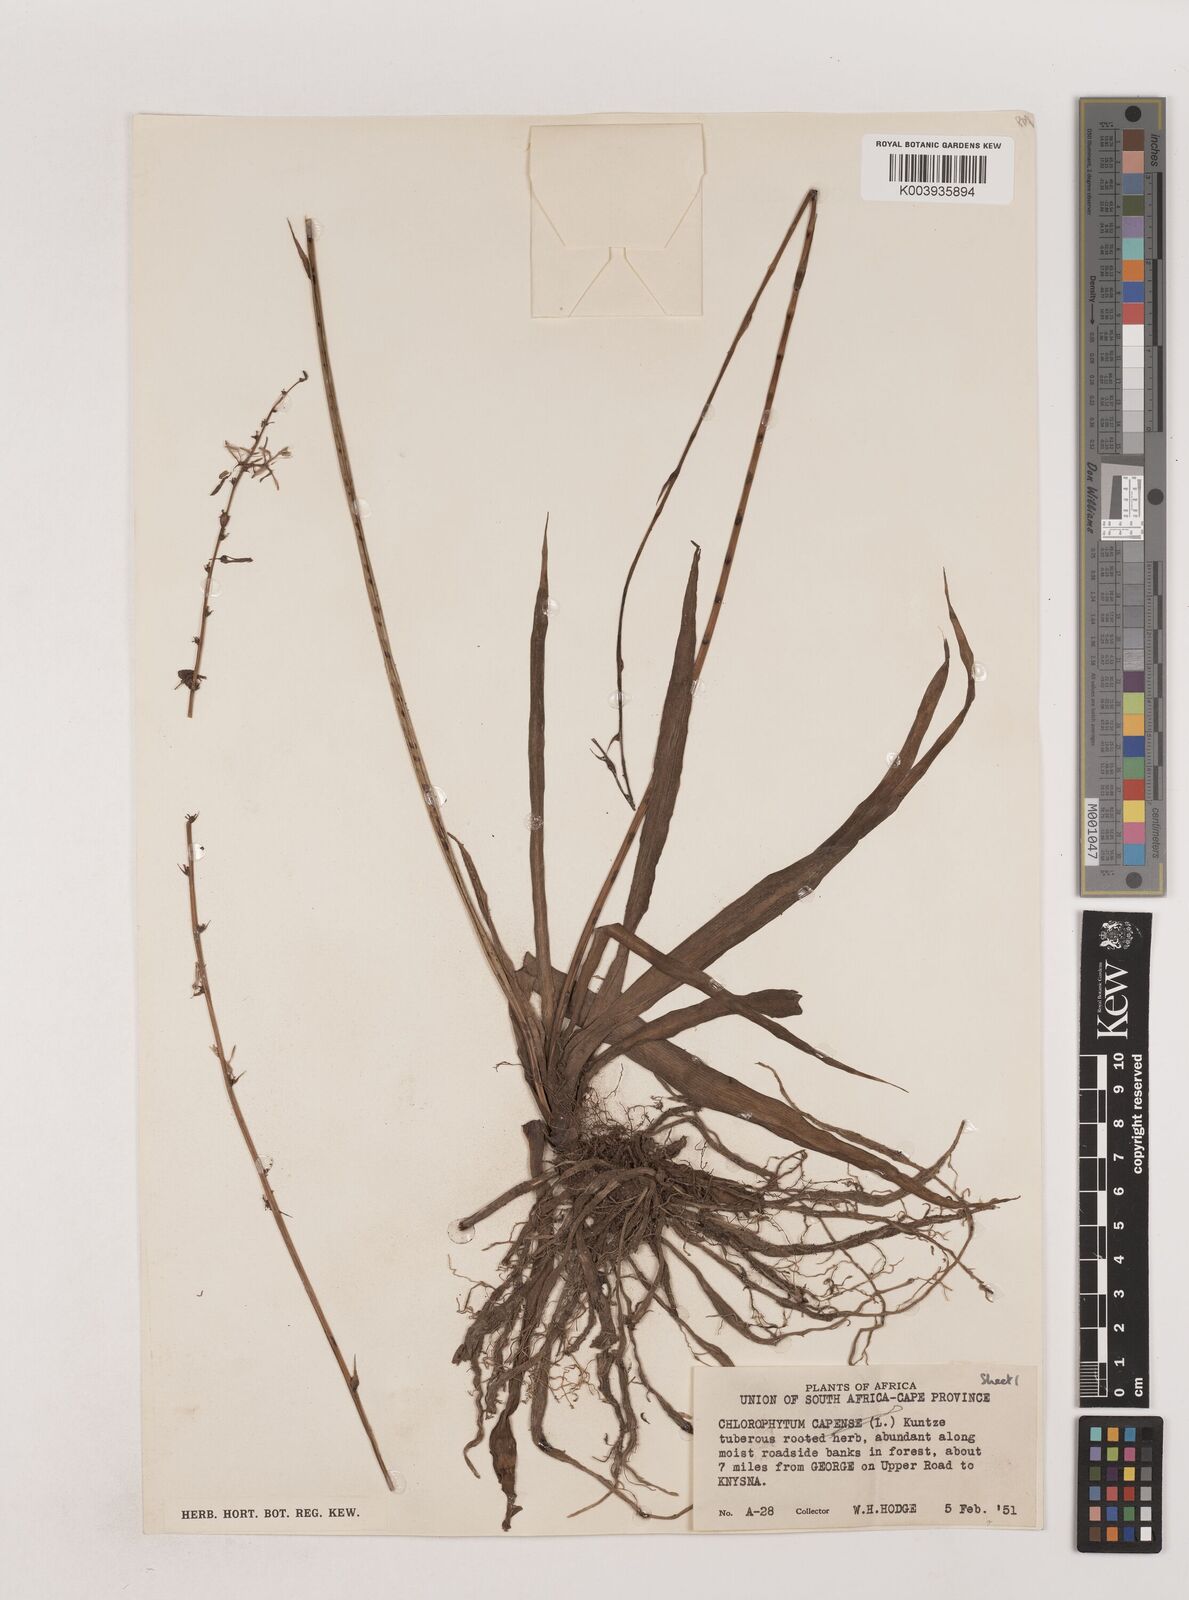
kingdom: Plantae
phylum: Tracheophyta
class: Liliopsida
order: Asparagales
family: Asparagaceae
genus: Chlorophytum
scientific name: Chlorophytum comosum
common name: Spider plant
